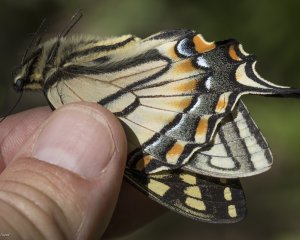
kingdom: Animalia
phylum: Arthropoda
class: Insecta
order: Lepidoptera
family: Papilionidae
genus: Pterourus
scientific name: Pterourus canadensis
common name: Canadian Tiger Swallowtail
